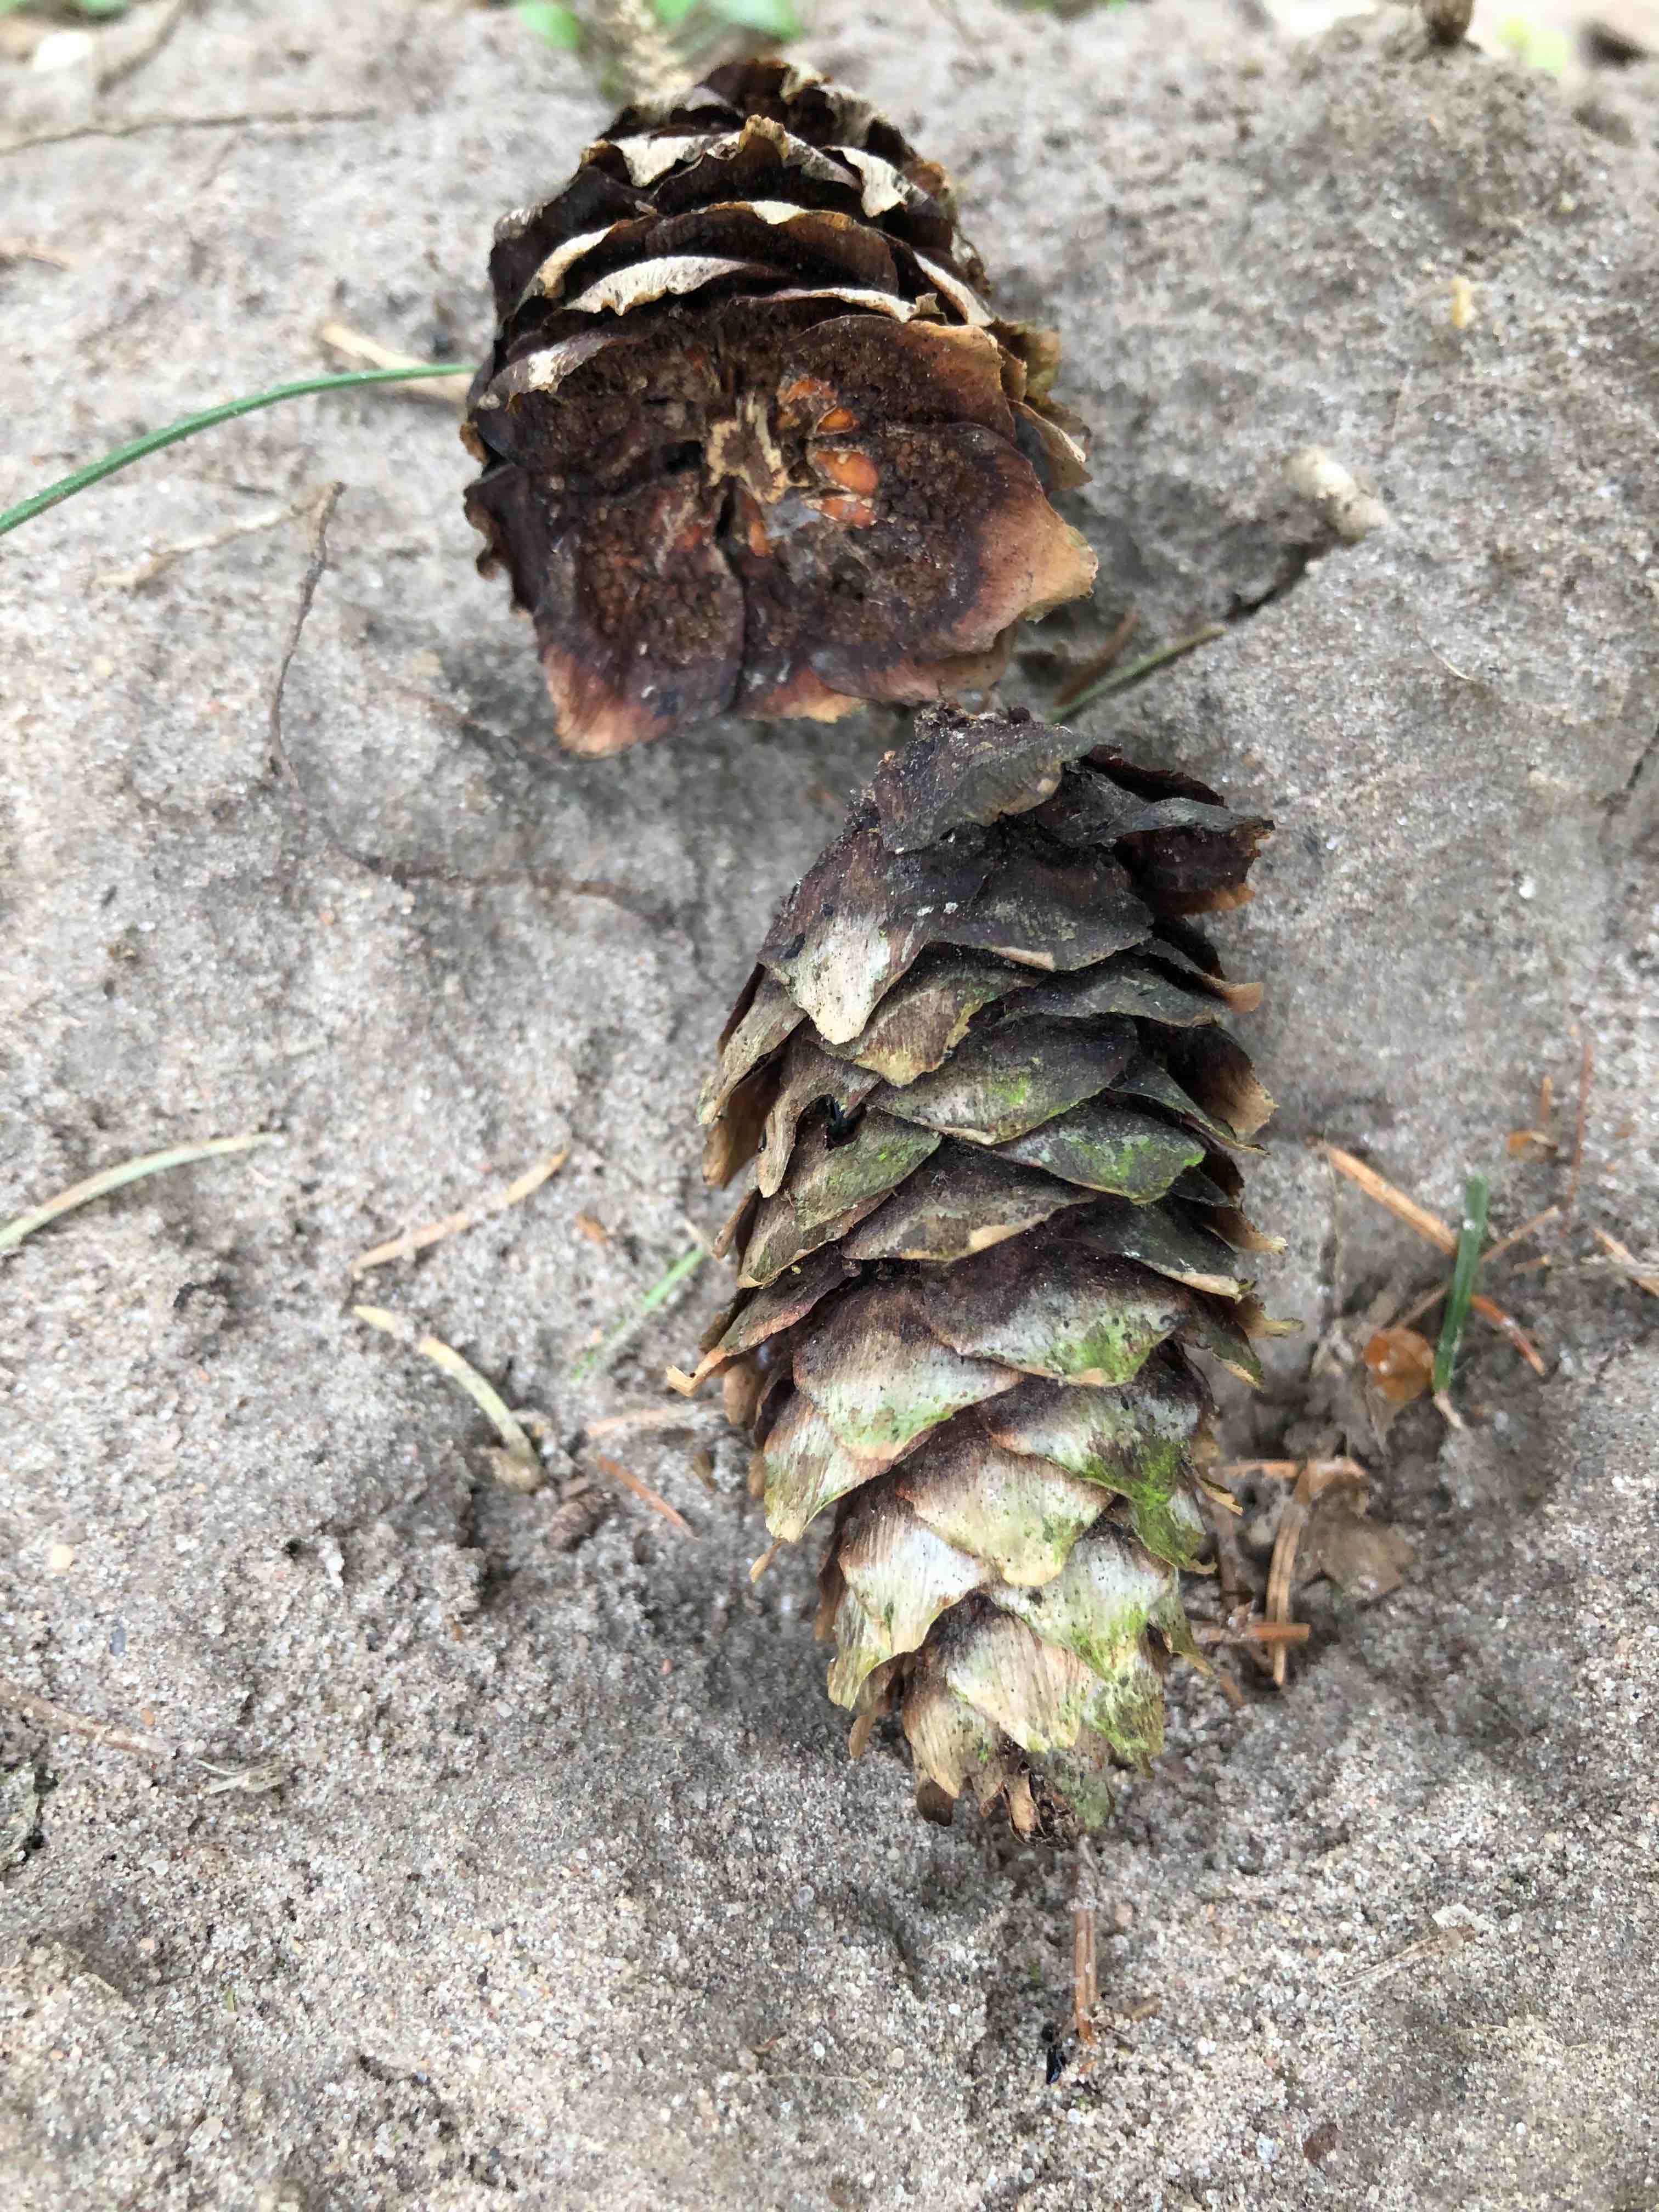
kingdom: Fungi
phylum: Basidiomycota
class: Pucciniomycetes
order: Pucciniales
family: Pucciniastraceae
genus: Thekopsora
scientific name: Thekopsora areolata
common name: grankogle-nålerust
